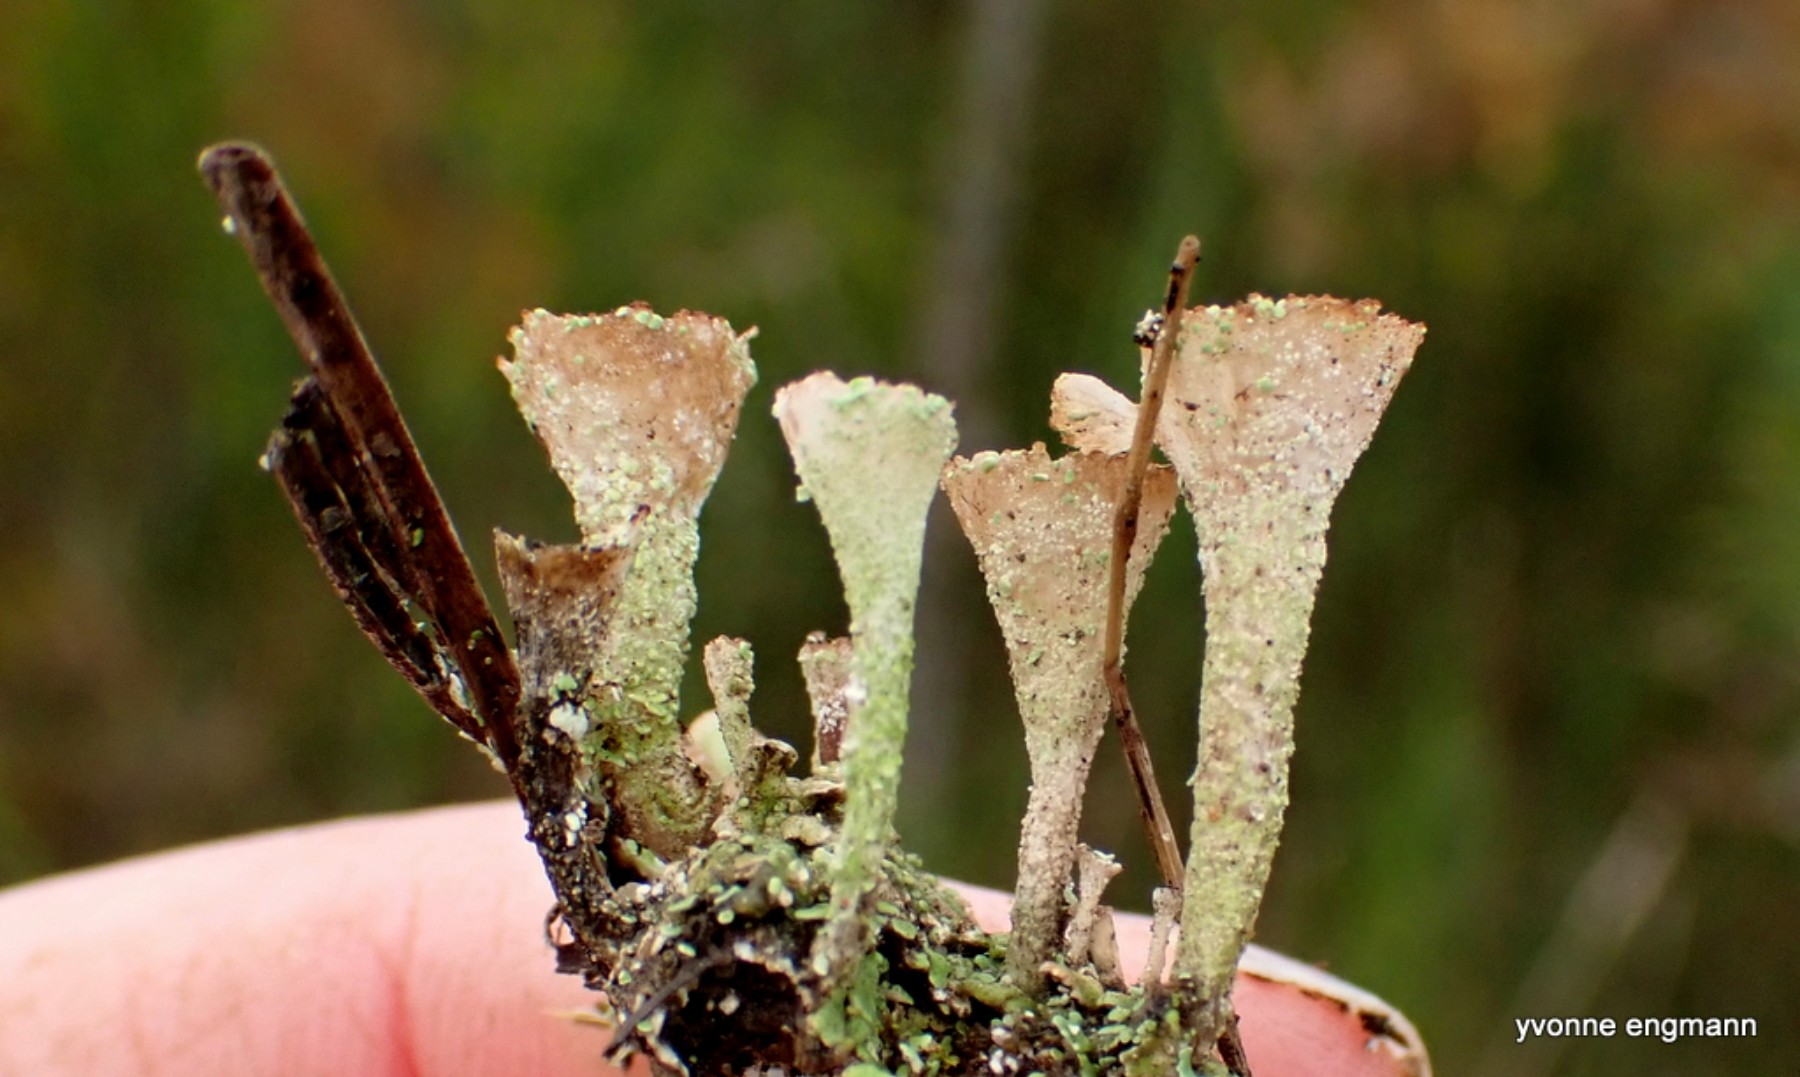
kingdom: Fungi
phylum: Ascomycota
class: Lecanoromycetes
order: Lecanorales
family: Cladoniaceae
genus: Cladonia
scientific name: Cladonia
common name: brungrøn bægerlav
